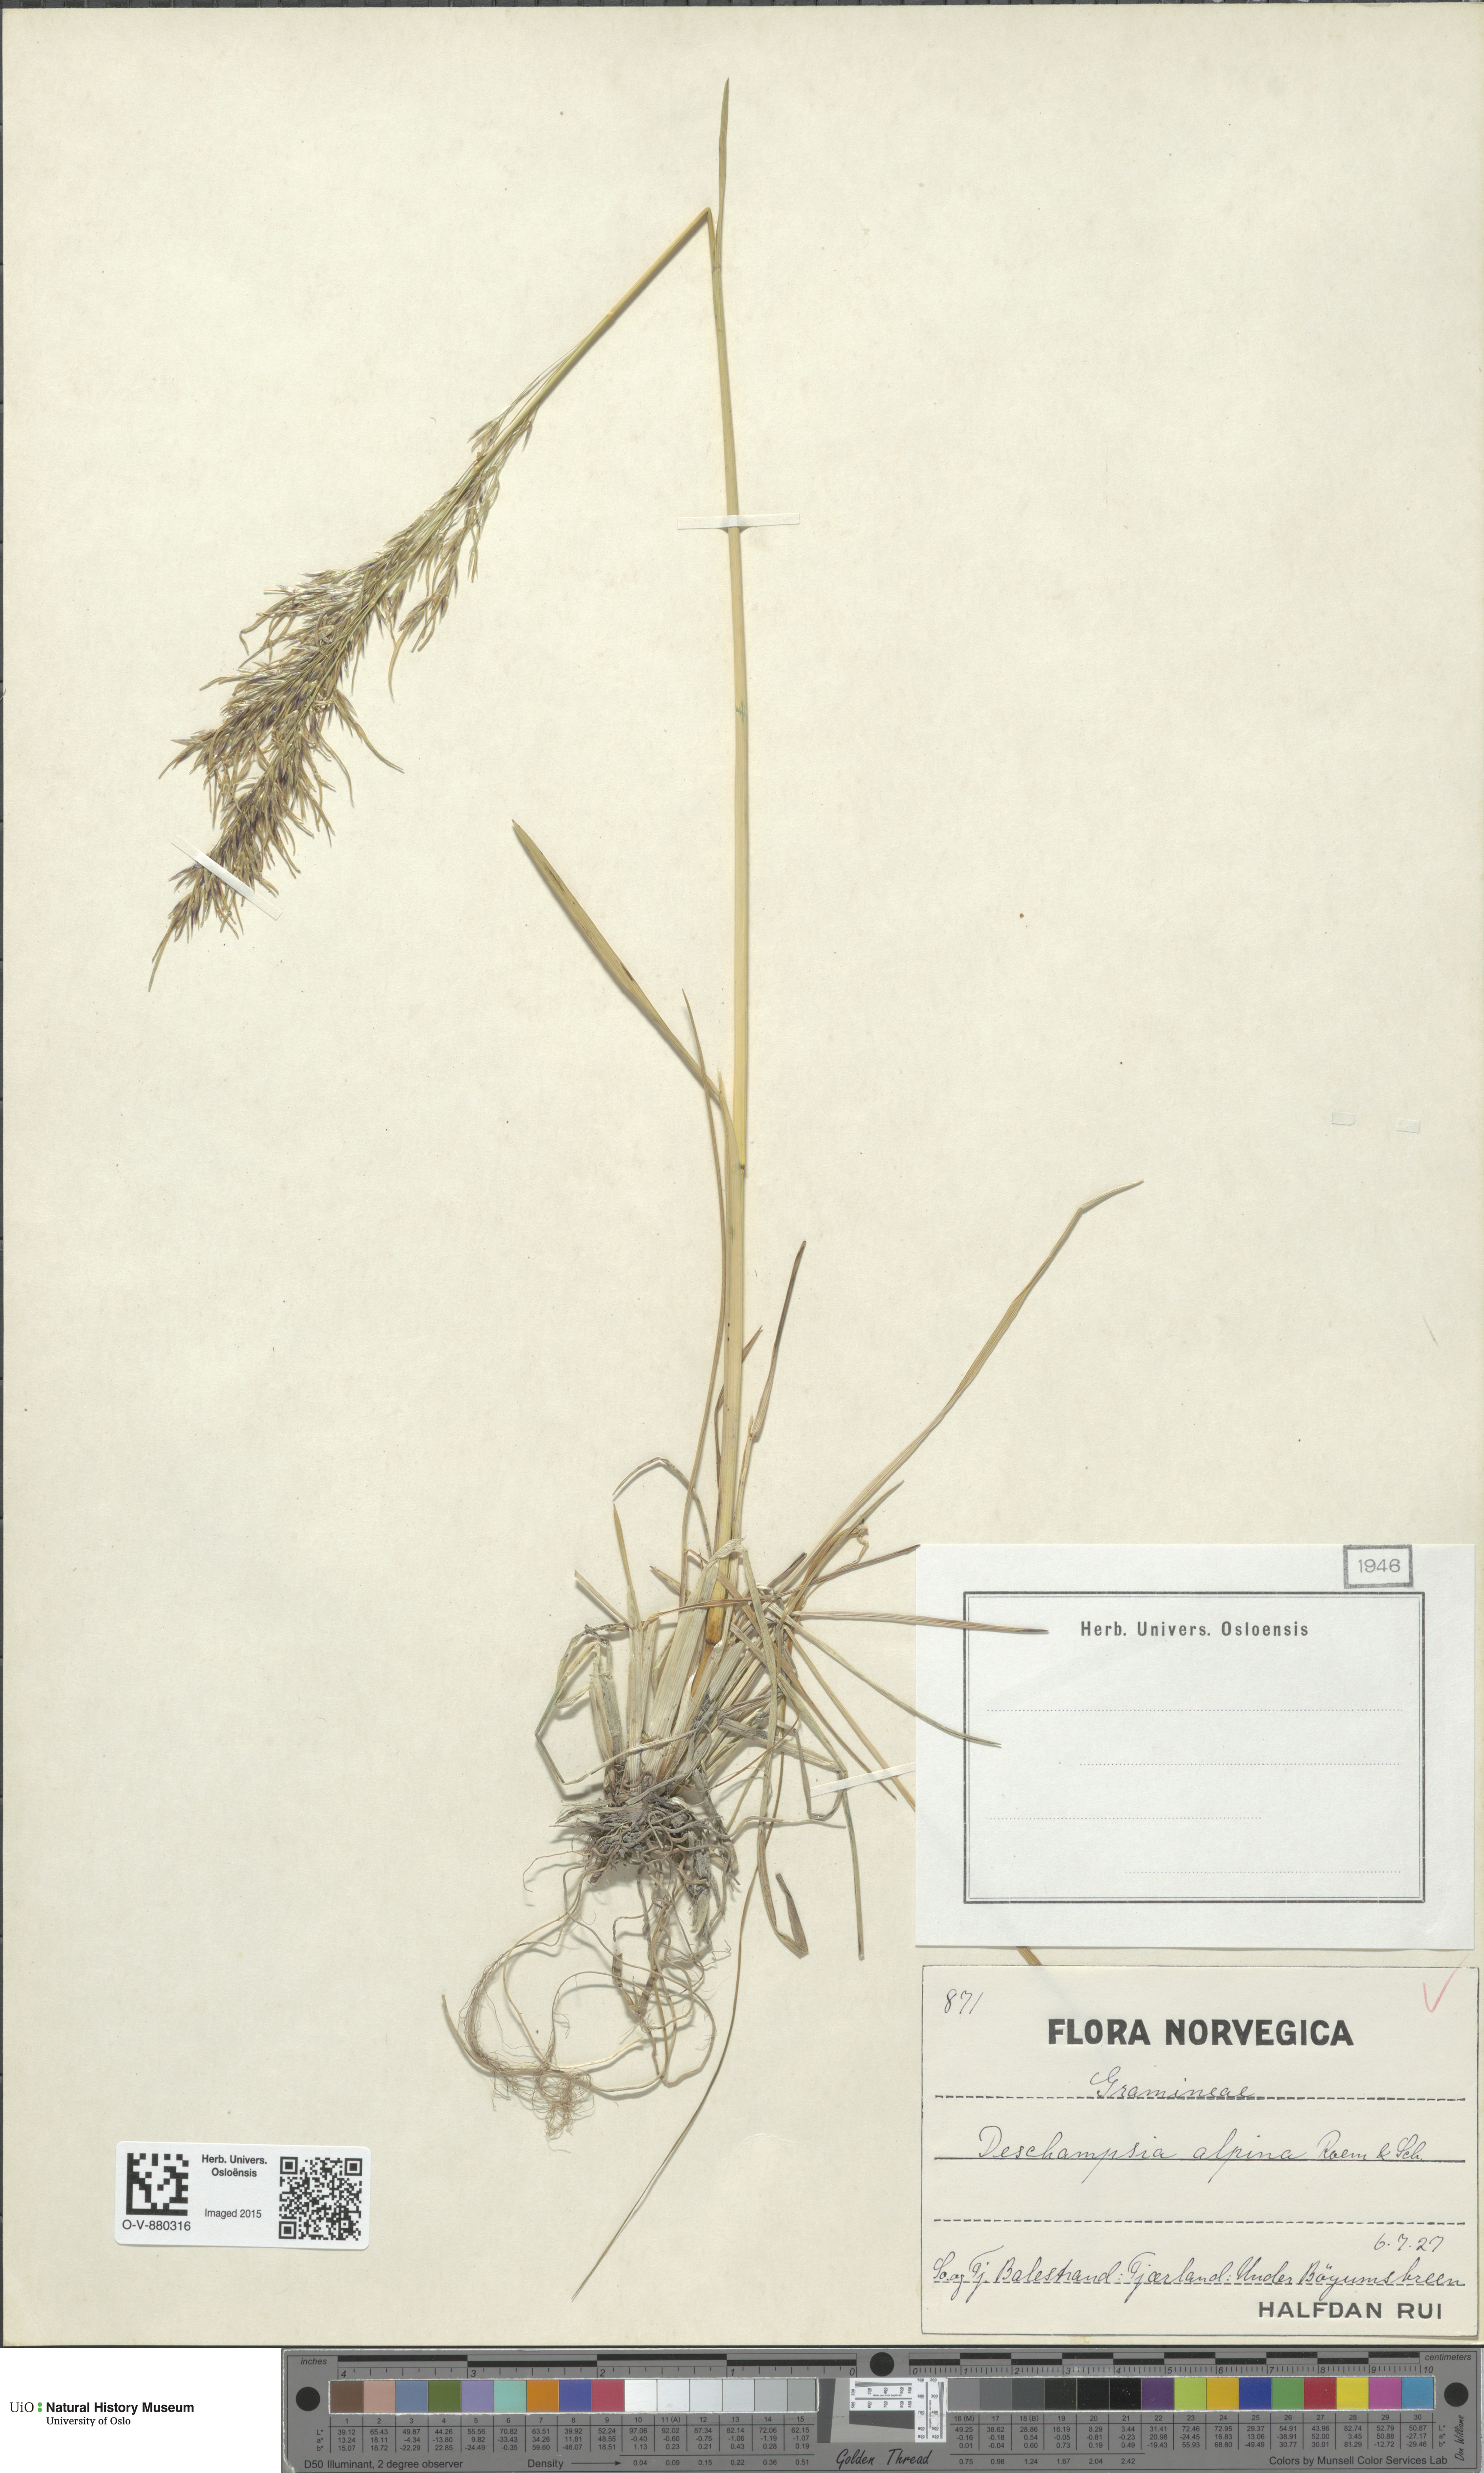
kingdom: Plantae
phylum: Tracheophyta
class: Liliopsida
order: Poales
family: Poaceae
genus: Deschampsia
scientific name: Deschampsia cespitosa
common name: Tufted hair-grass
